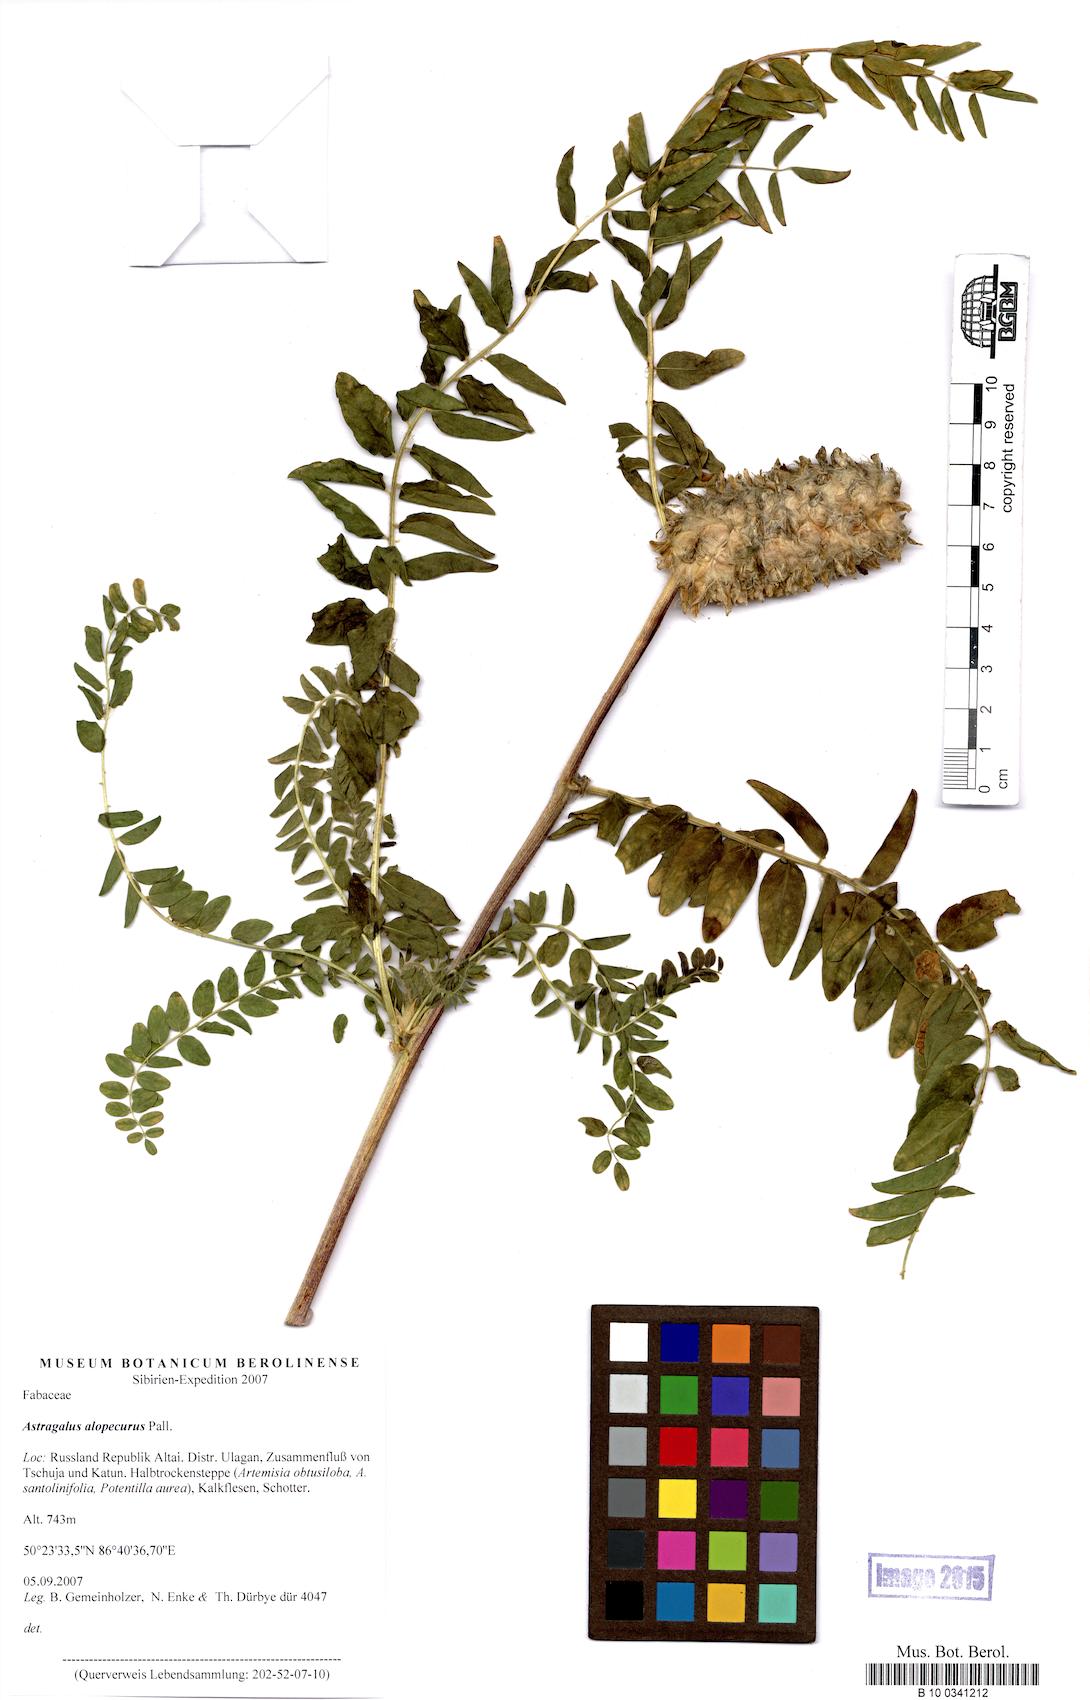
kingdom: Plantae
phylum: Tracheophyta
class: Magnoliopsida
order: Fabales
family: Fabaceae
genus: Astragalus
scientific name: Astragalus alopecurus
